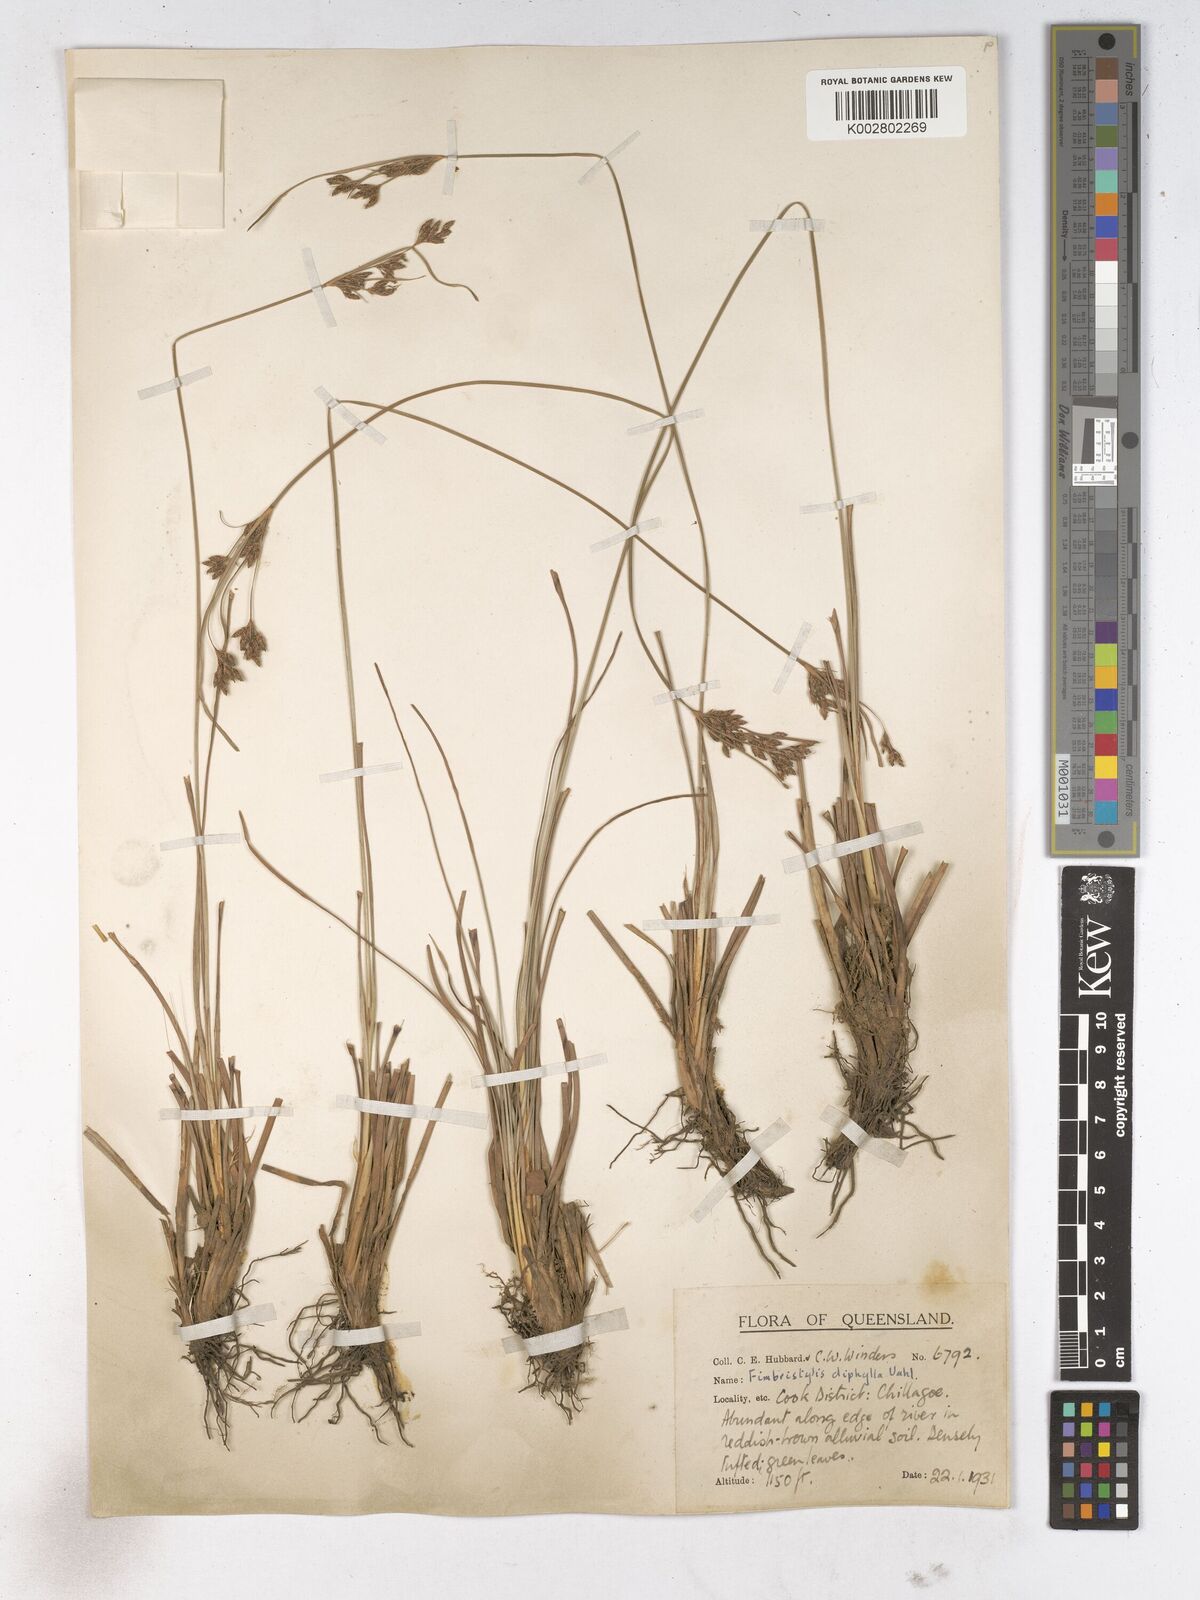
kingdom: Plantae
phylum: Tracheophyta
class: Liliopsida
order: Poales
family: Cyperaceae
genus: Fimbristylis
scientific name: Fimbristylis dichotoma
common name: Forked fimbry
